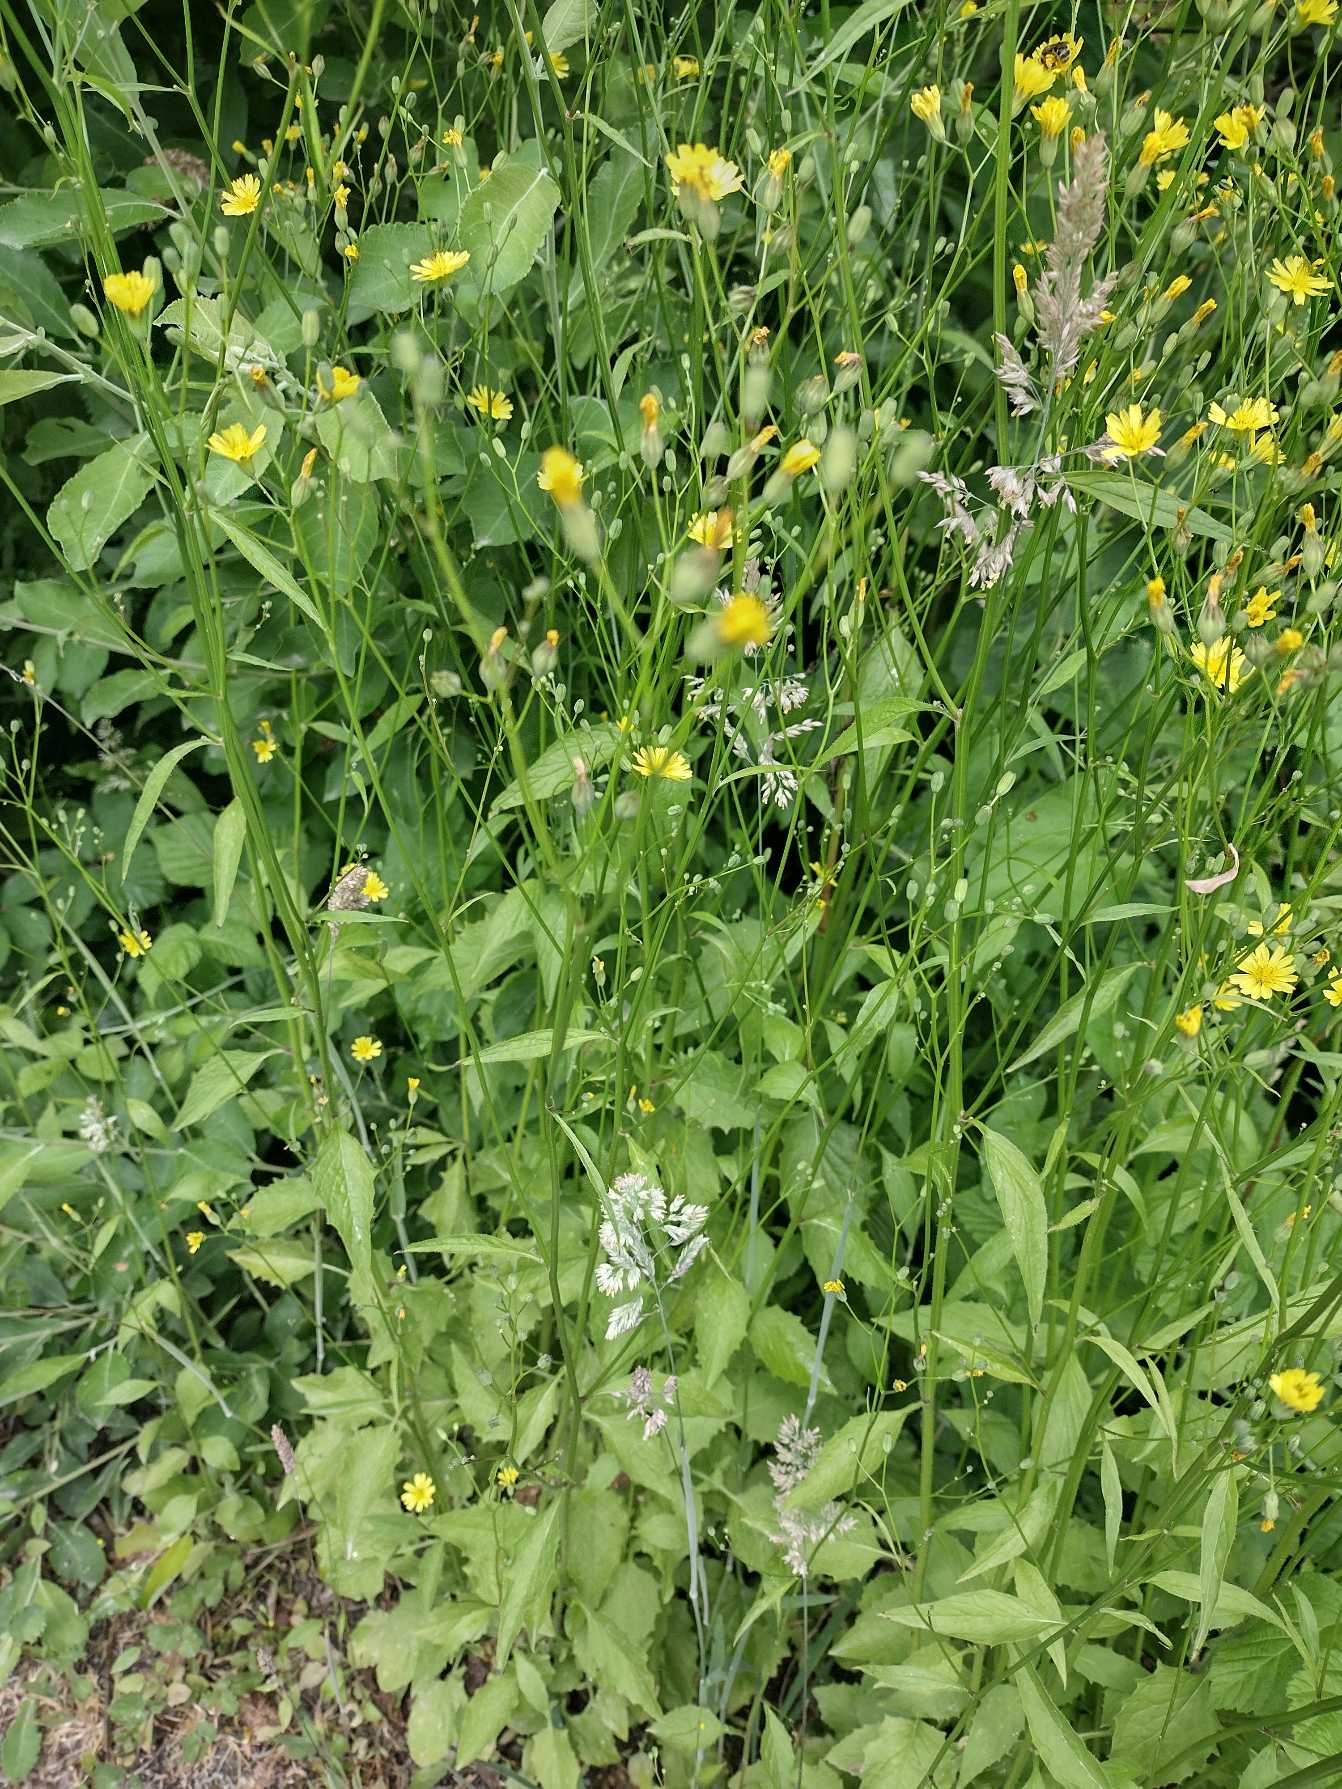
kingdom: Plantae
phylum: Tracheophyta
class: Magnoliopsida
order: Asterales
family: Asteraceae
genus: Lapsana
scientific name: Lapsana communis
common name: Haremad
